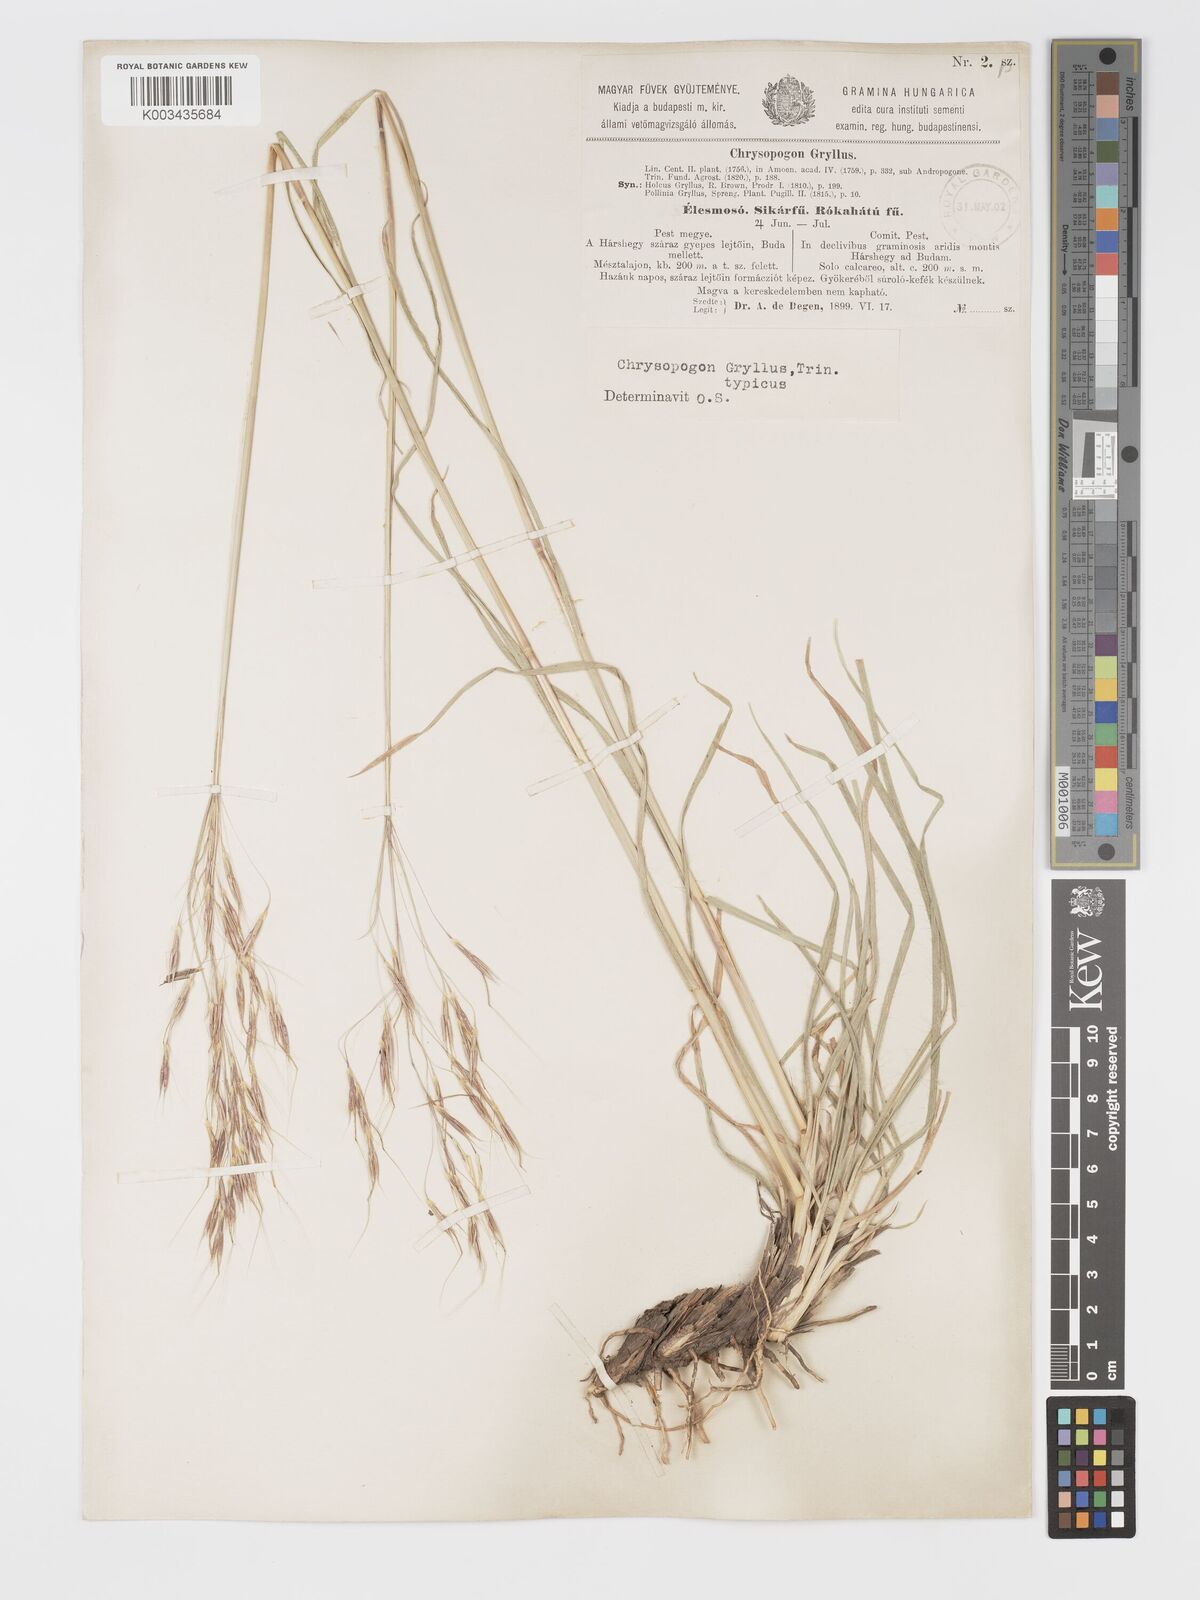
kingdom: Plantae
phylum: Tracheophyta
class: Liliopsida
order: Poales
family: Poaceae
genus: Chrysopogon
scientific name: Chrysopogon gryllus
